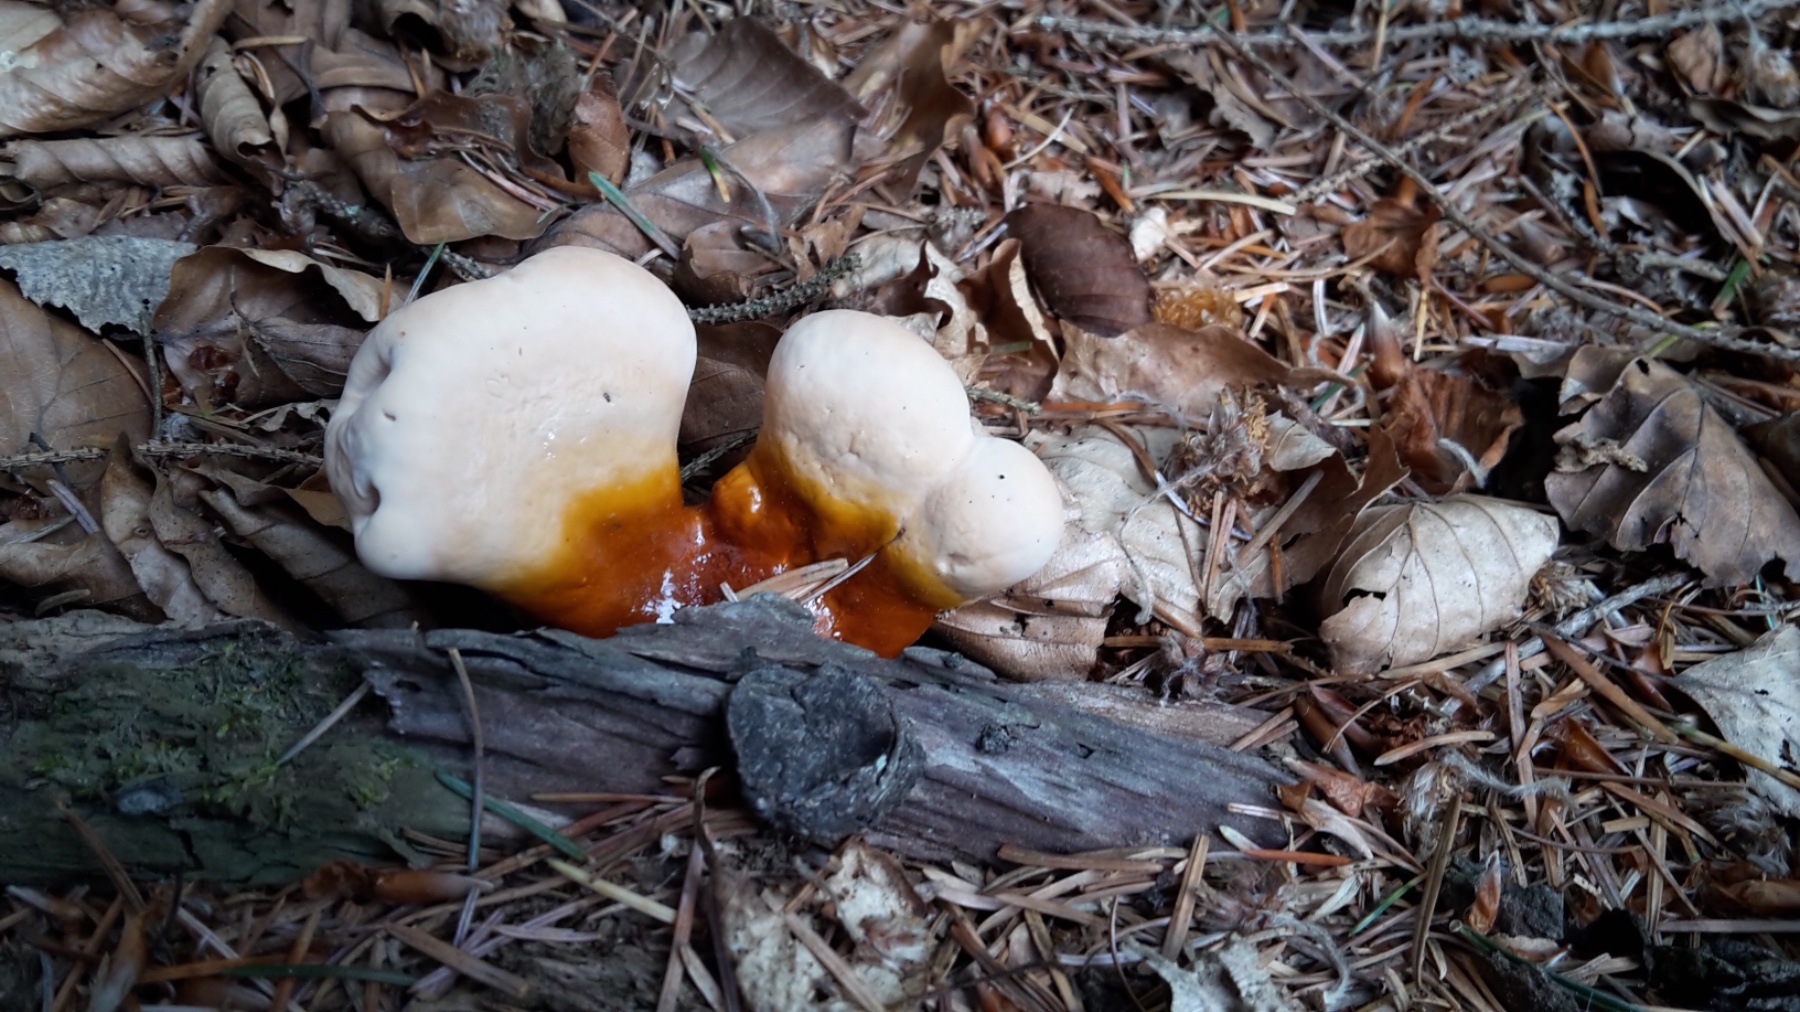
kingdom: Fungi
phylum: Basidiomycota
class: Agaricomycetes
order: Polyporales
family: Polyporaceae
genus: Ganoderma
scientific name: Ganoderma lucidum
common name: skinnende lakporesvamp
